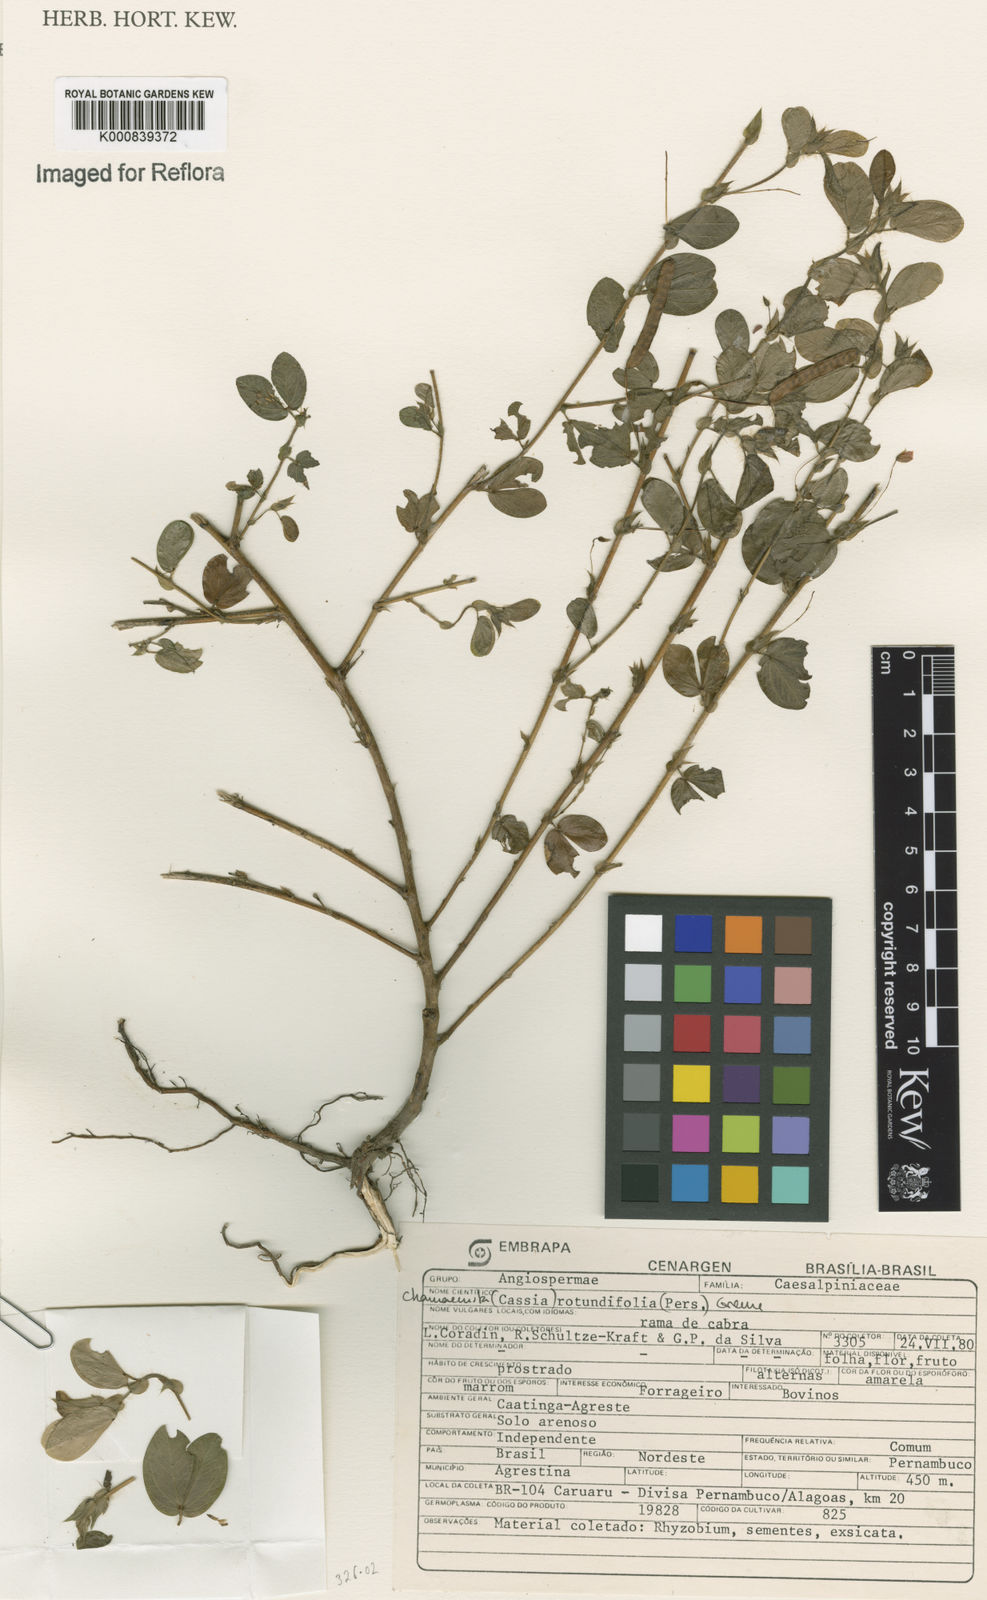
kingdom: Plantae
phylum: Tracheophyta
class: Magnoliopsida
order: Fabales
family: Fabaceae
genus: Chamaecrista
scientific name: Chamaecrista rotundifolia
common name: Round-leaf cassia
